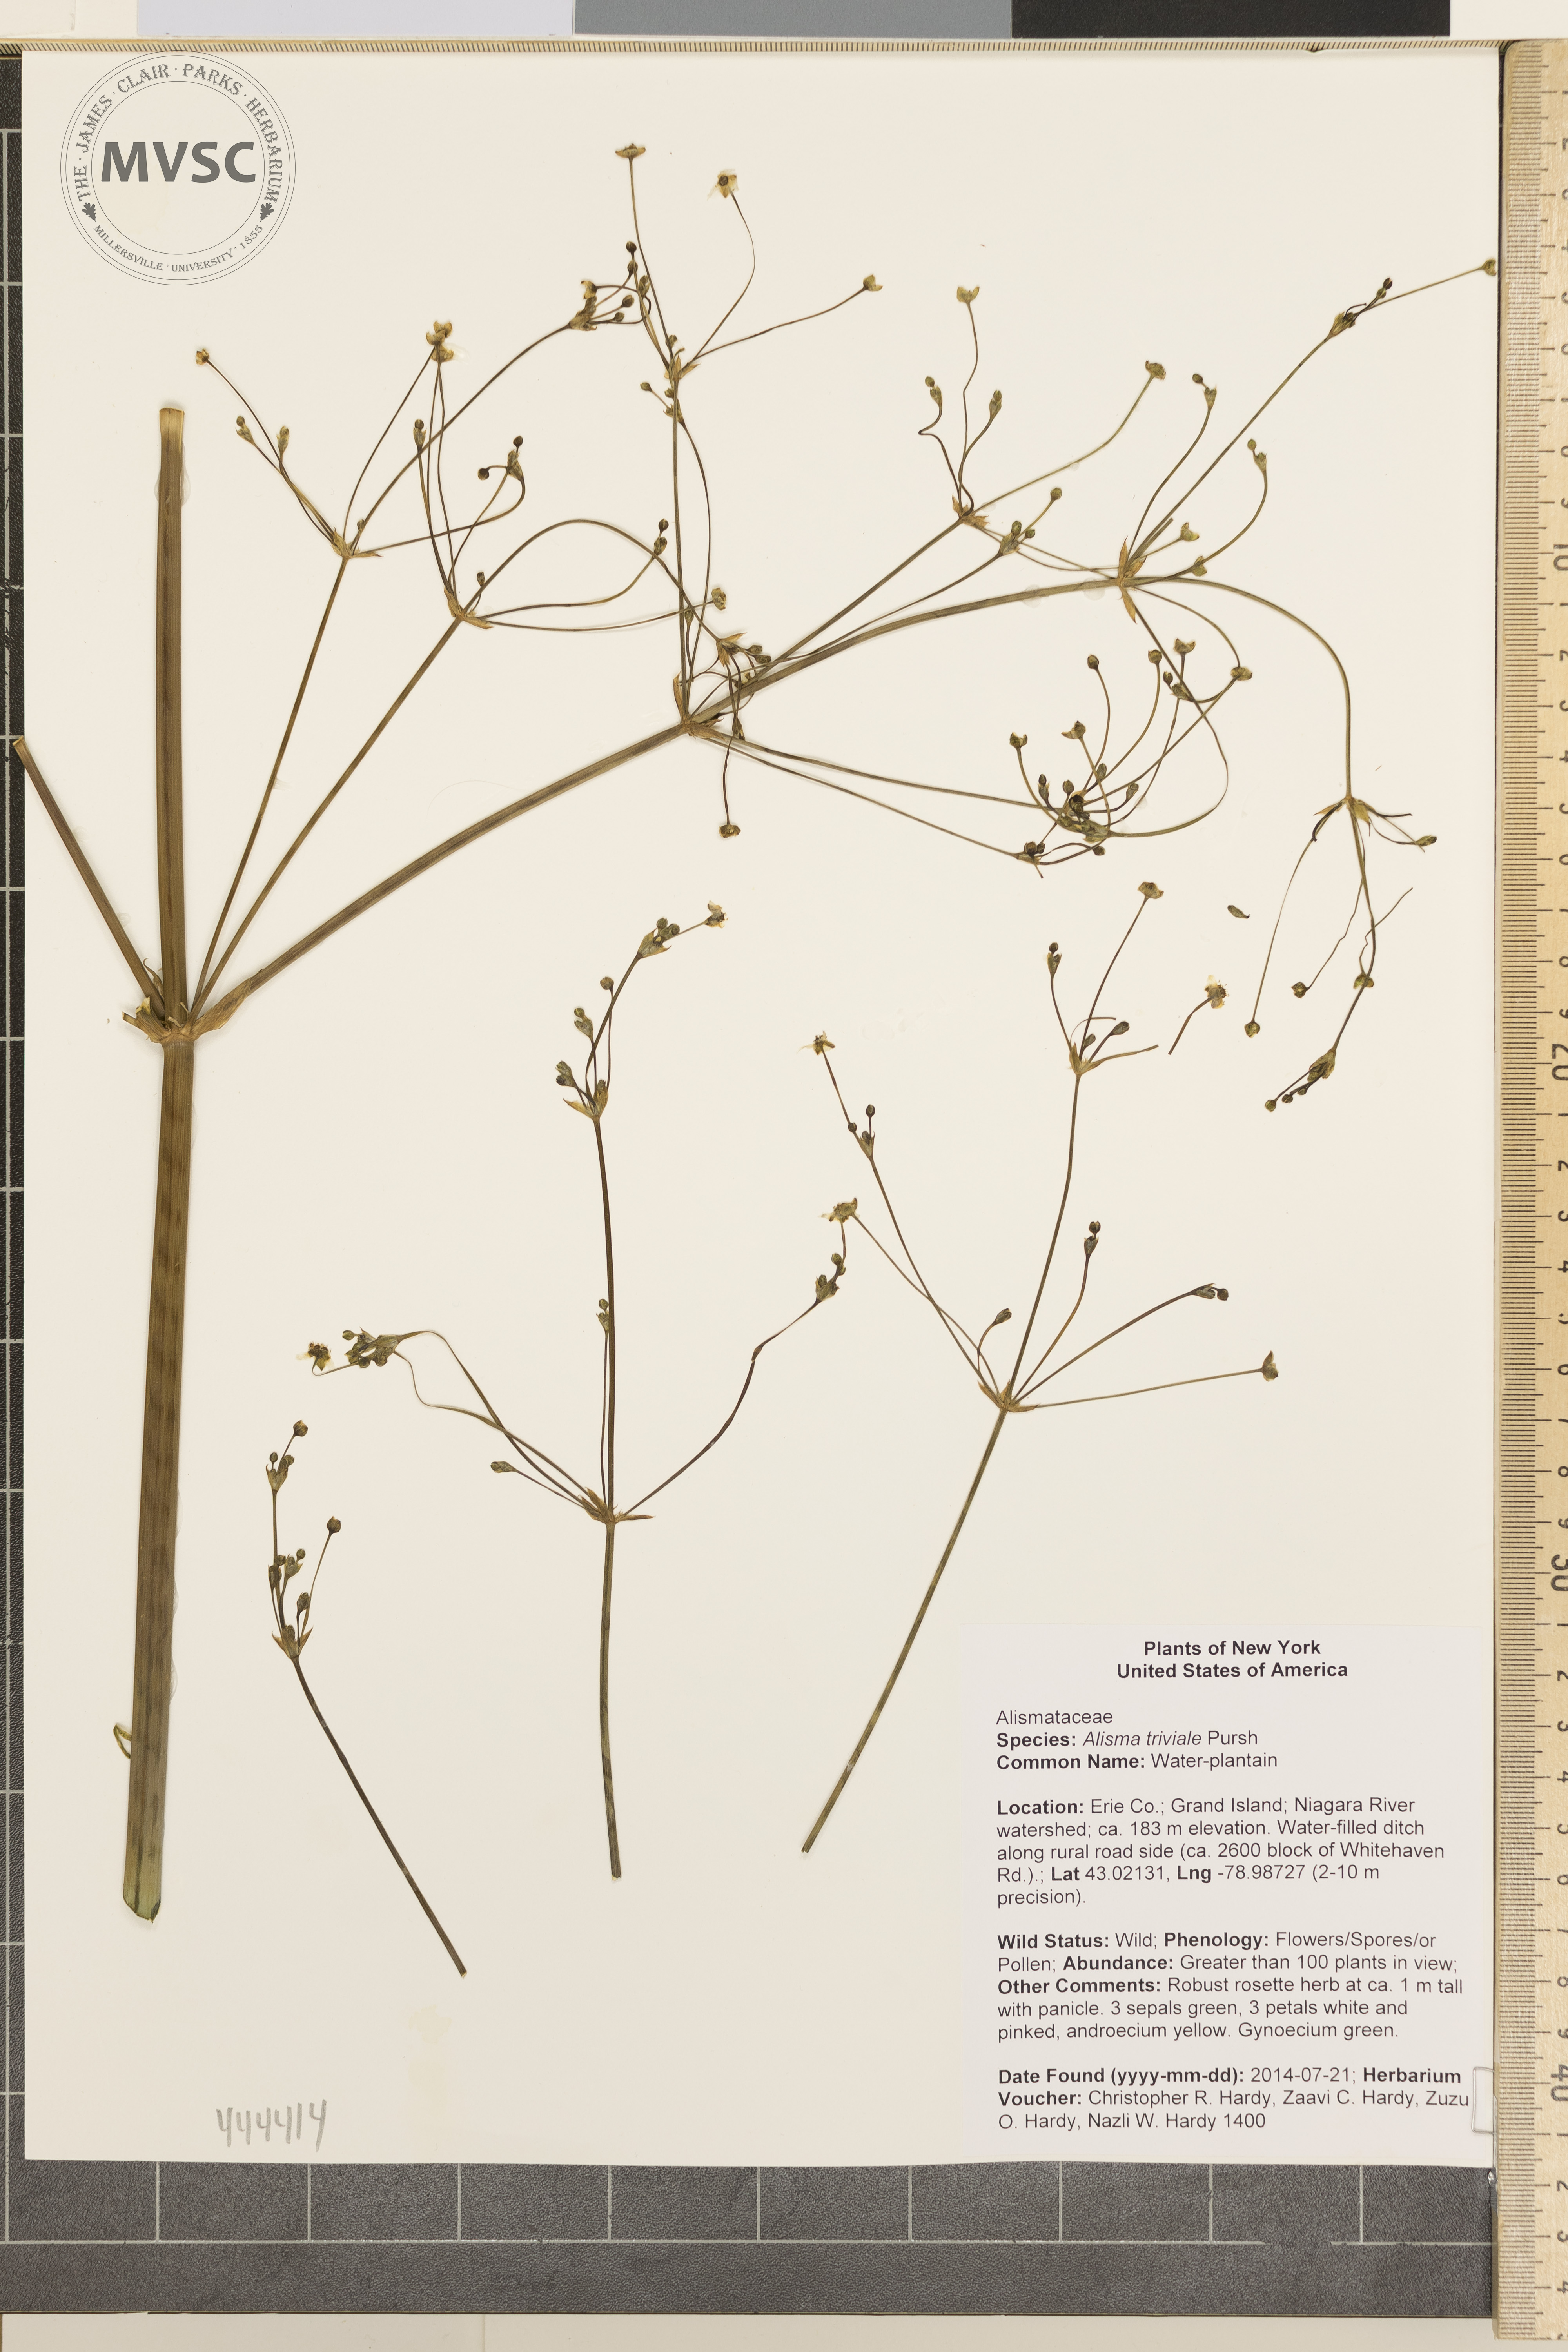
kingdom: Plantae
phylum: Tracheophyta
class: Liliopsida
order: Alismatales
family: Alismataceae
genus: Alisma
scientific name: Alisma triviale
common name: Water-plantain
